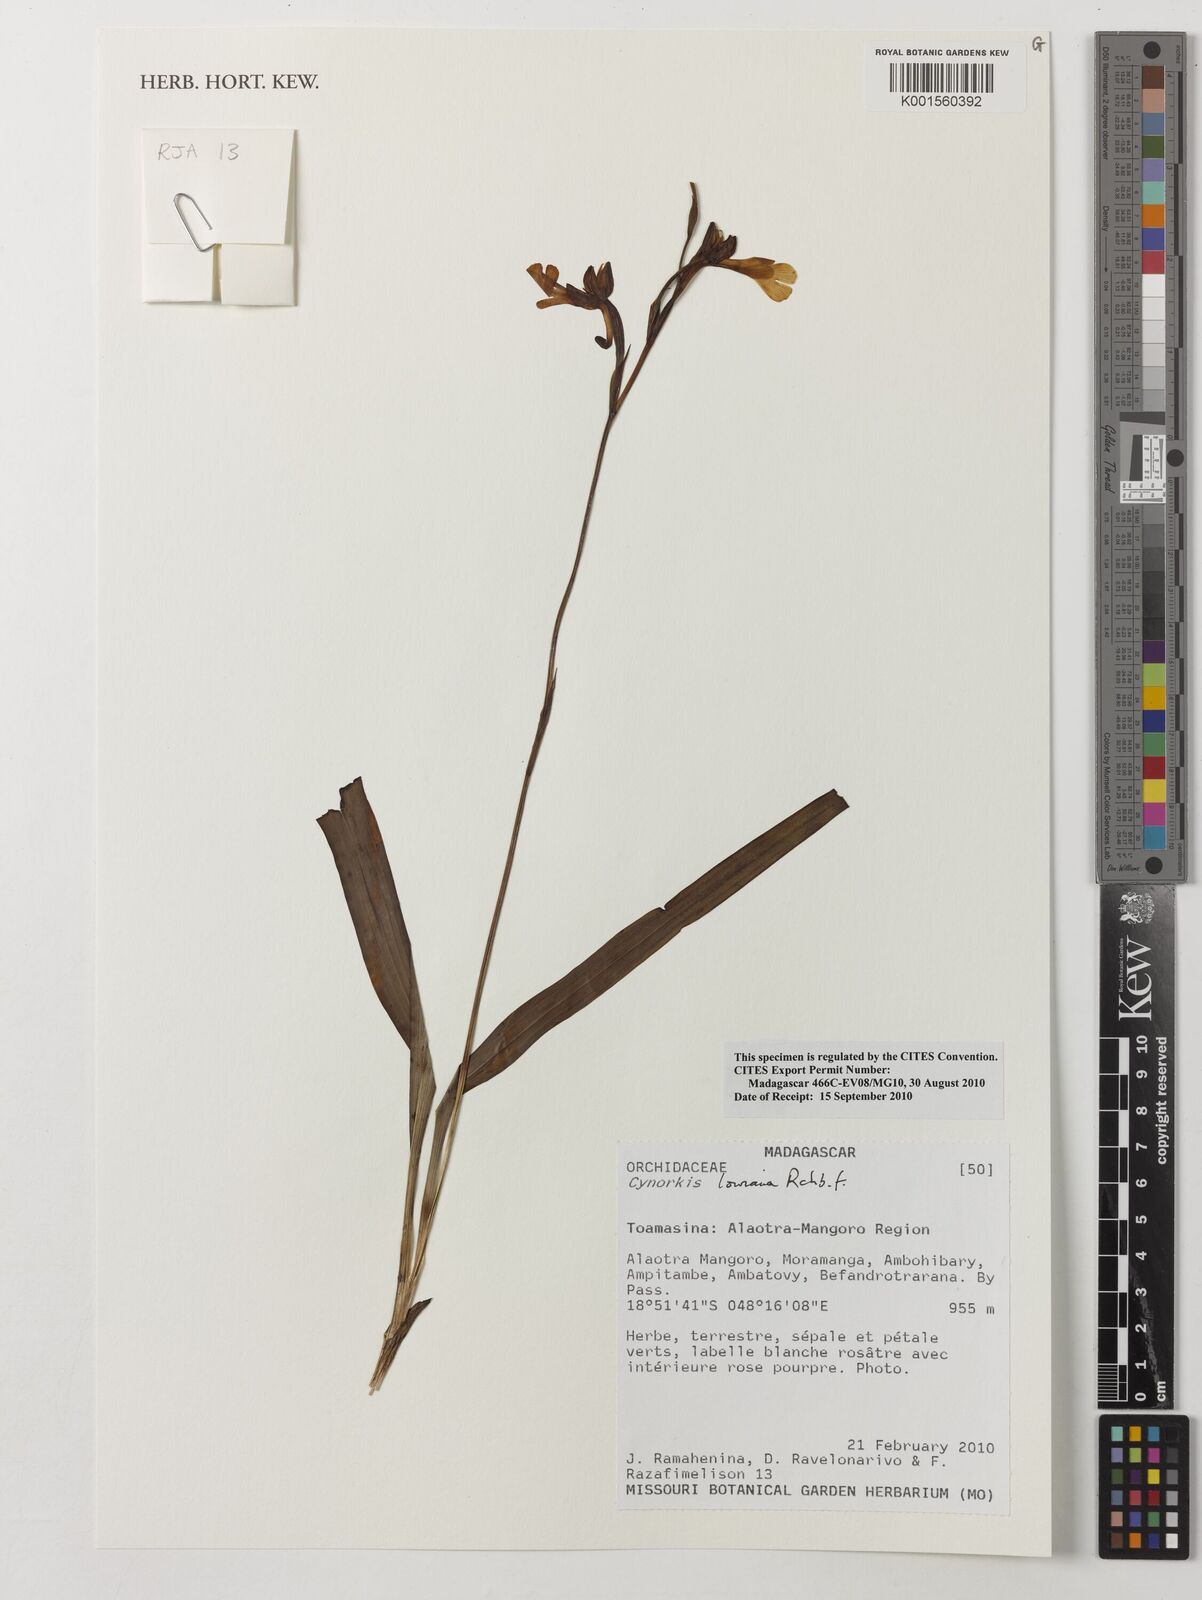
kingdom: Plantae
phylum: Tracheophyta
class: Liliopsida
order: Asparagales
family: Orchidaceae
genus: Cynorkis
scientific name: Cynorkis lowiana
